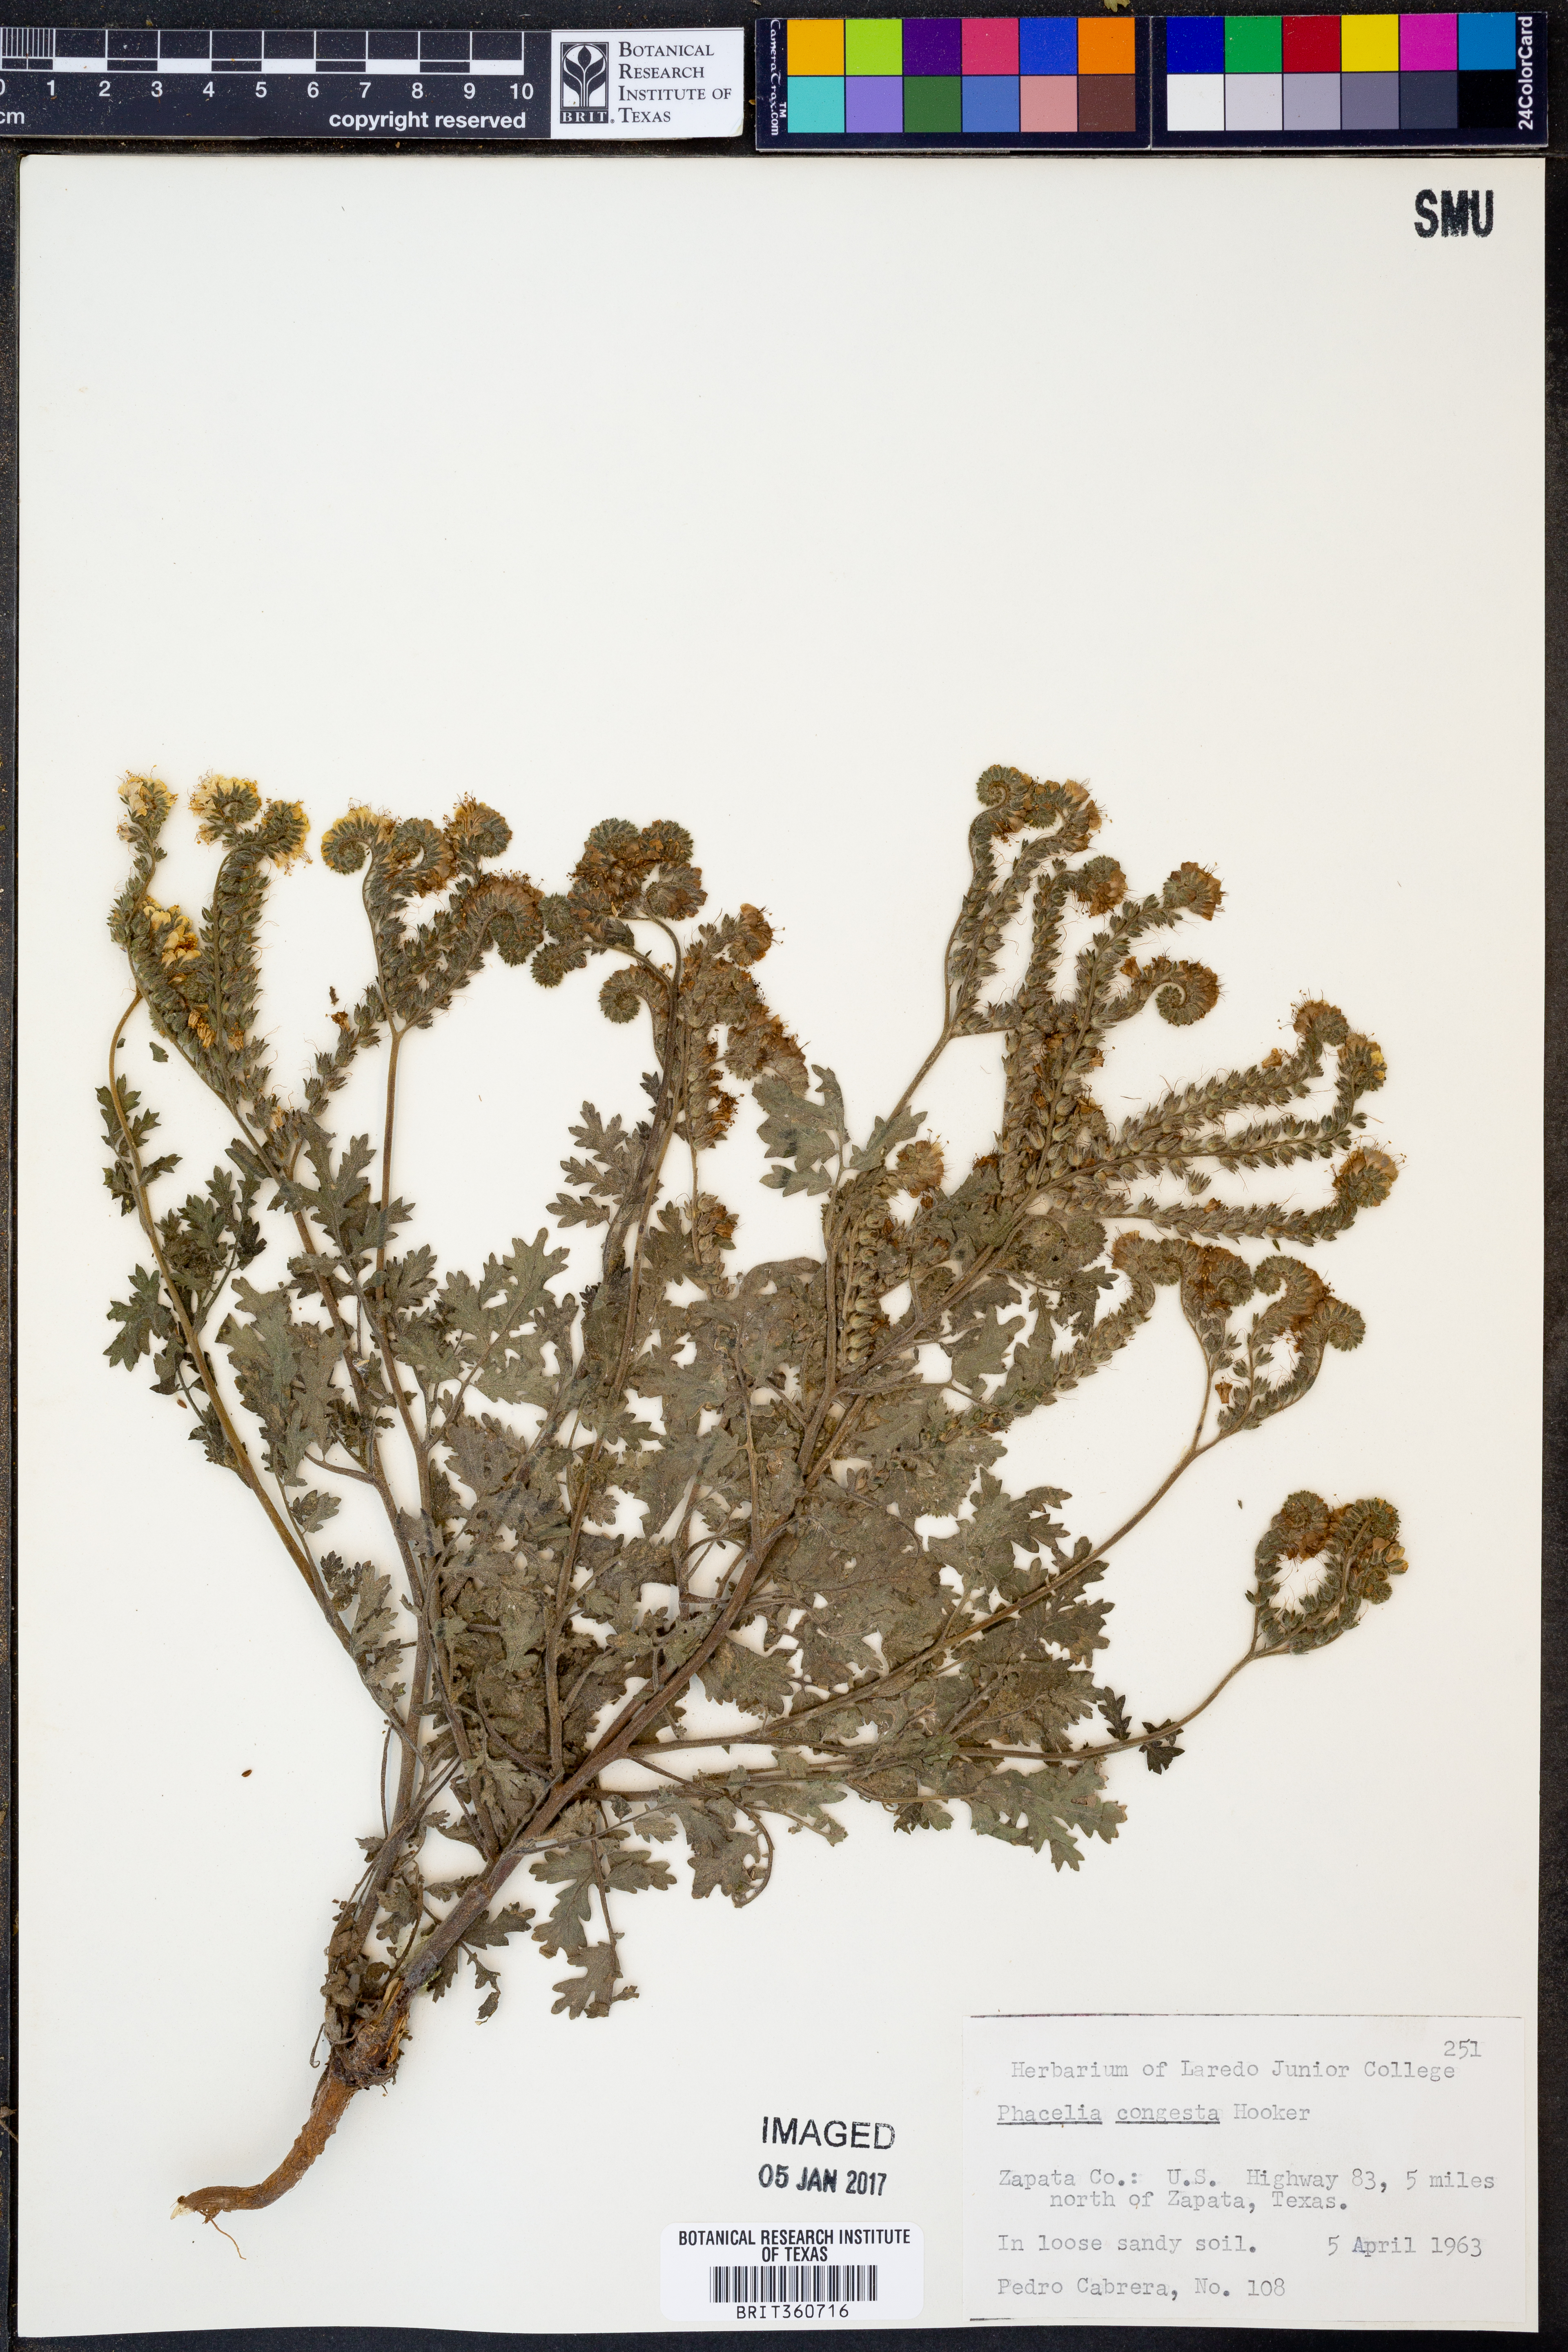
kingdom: Plantae
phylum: Tracheophyta
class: Magnoliopsida
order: Boraginales
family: Hydrophyllaceae
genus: Phacelia
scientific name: Phacelia congesta
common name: Blue curls
